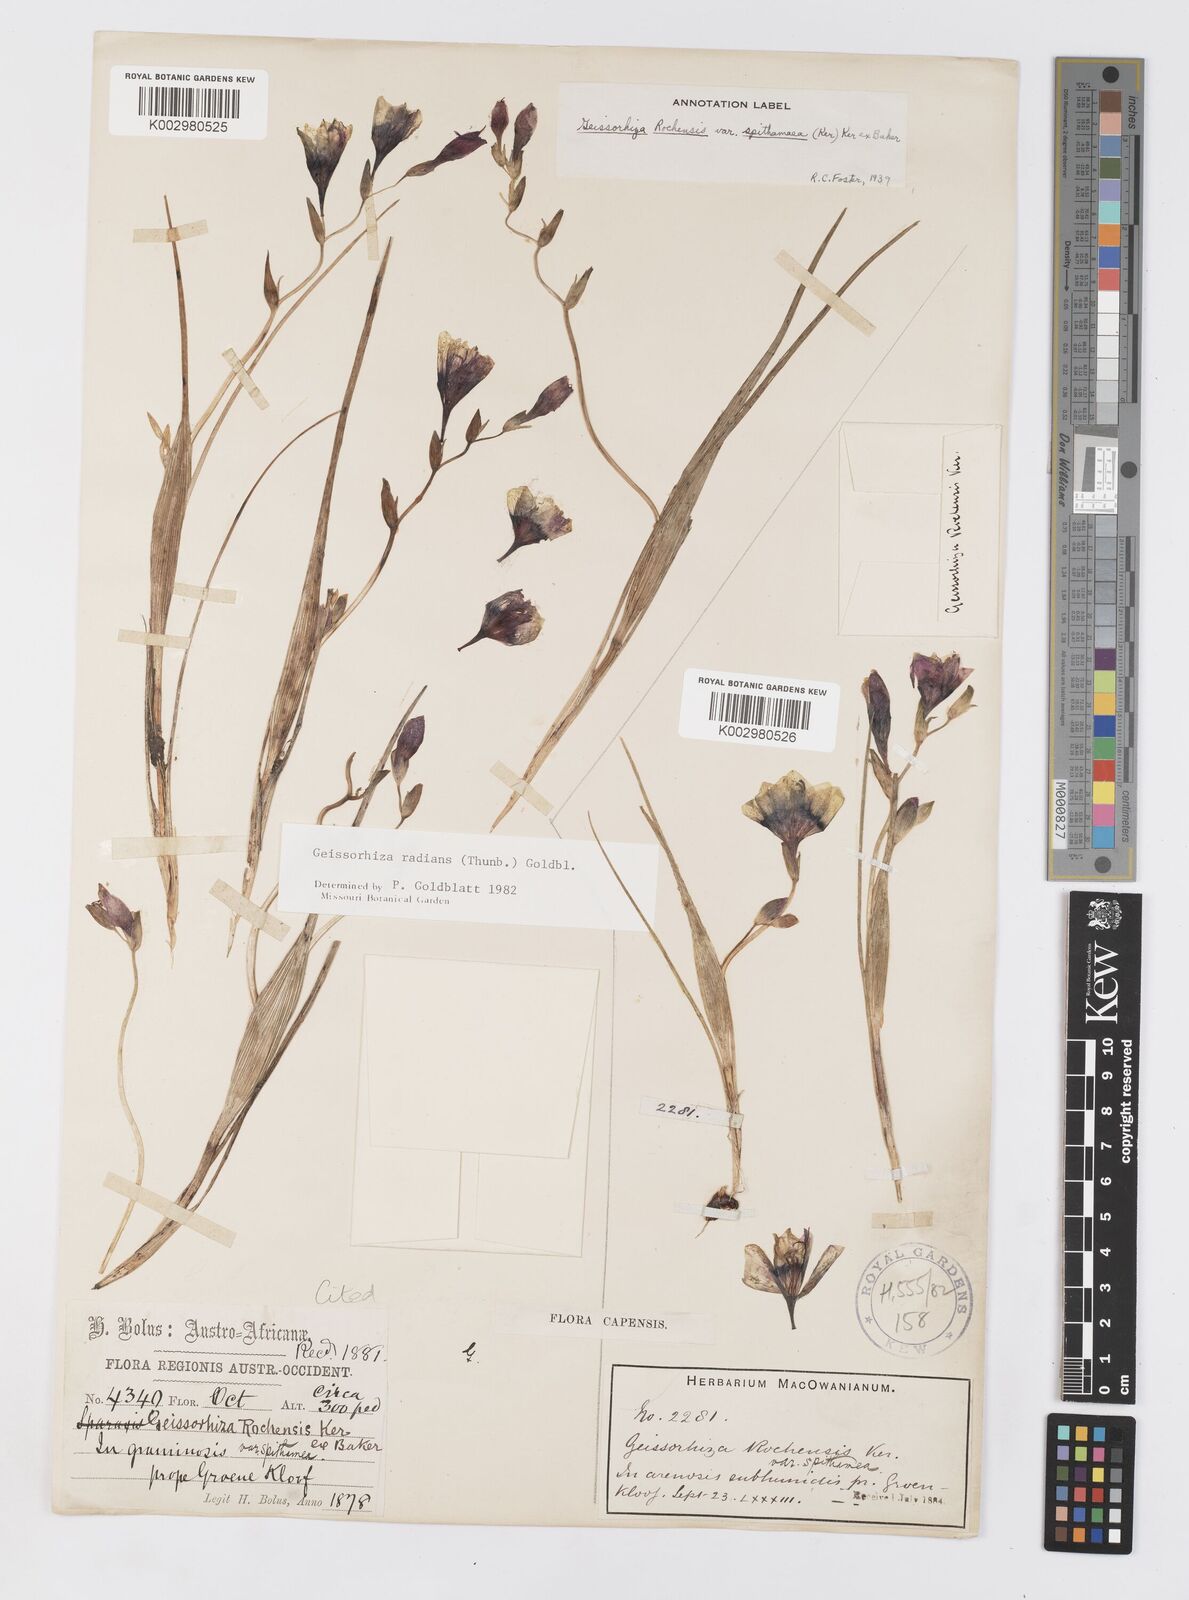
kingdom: Plantae
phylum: Tracheophyta
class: Liliopsida
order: Asparagales
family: Iridaceae
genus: Geissorhiza
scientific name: Geissorhiza radians
